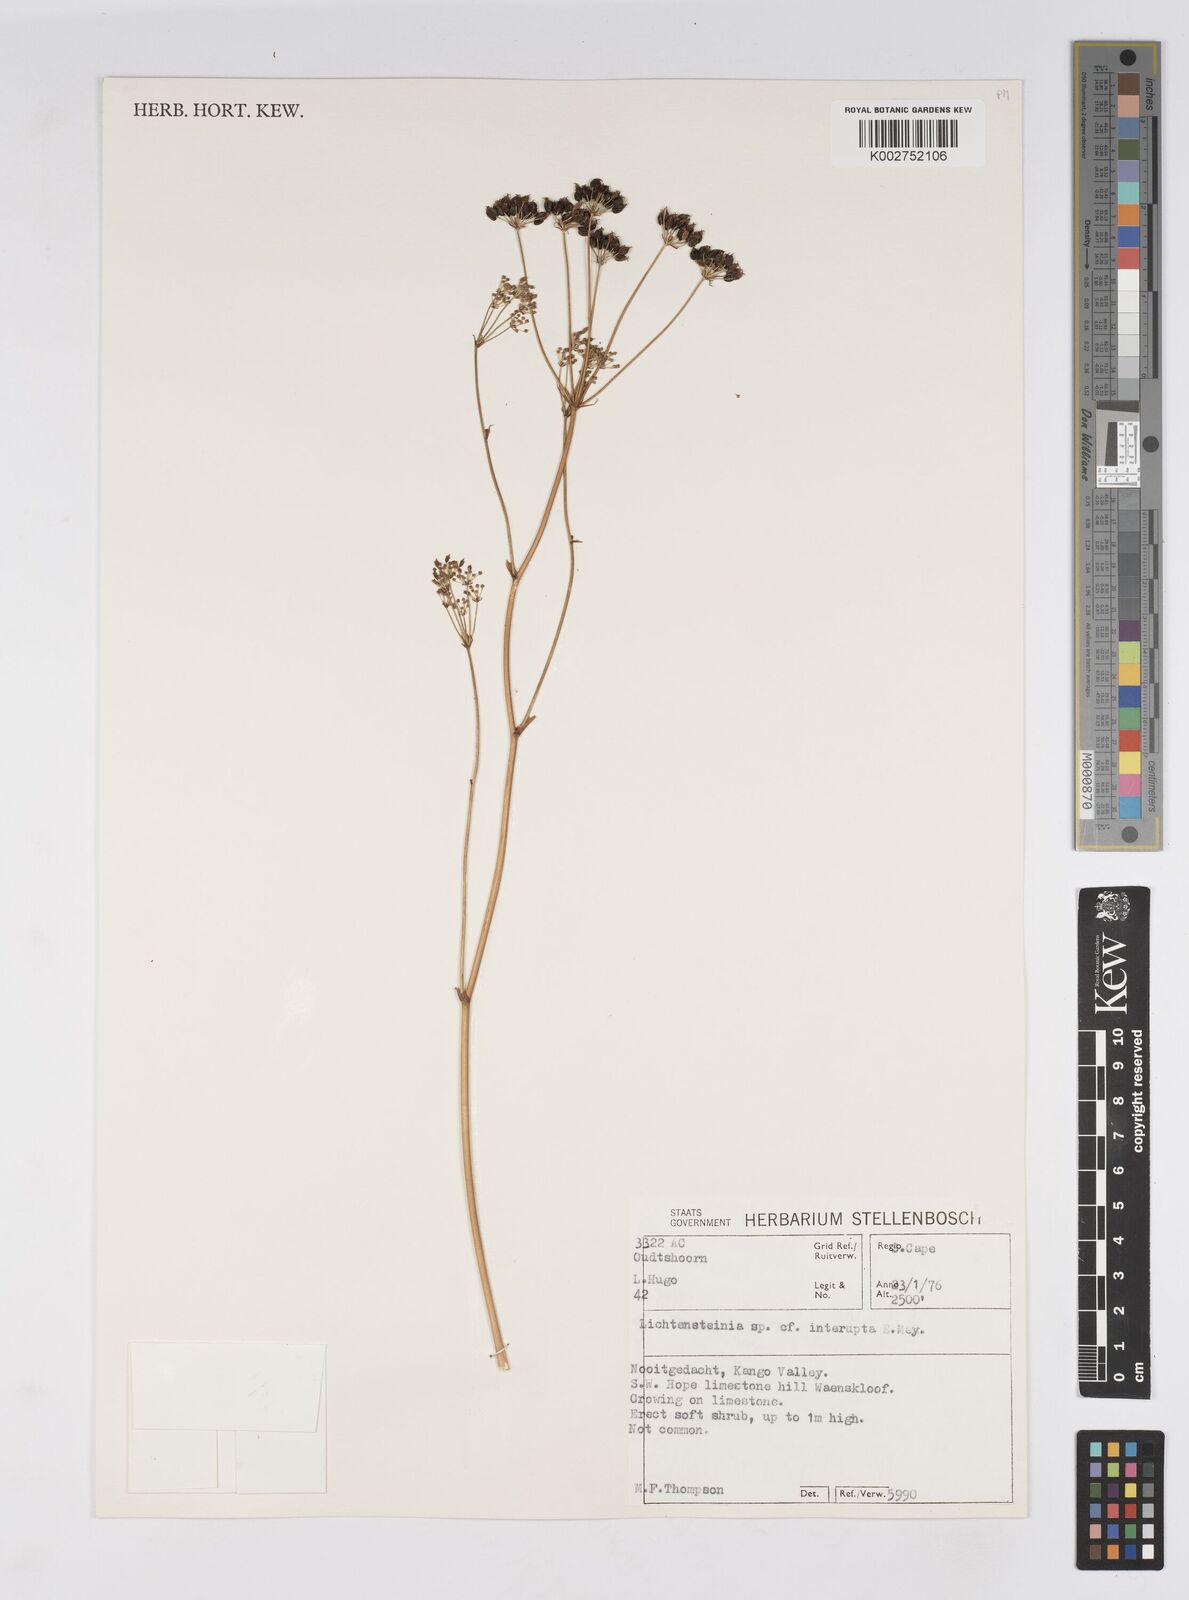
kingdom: Plantae
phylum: Tracheophyta
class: Magnoliopsida
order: Apiales
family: Apiaceae
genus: Lichtensteinia
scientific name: Lichtensteinia interrupta
